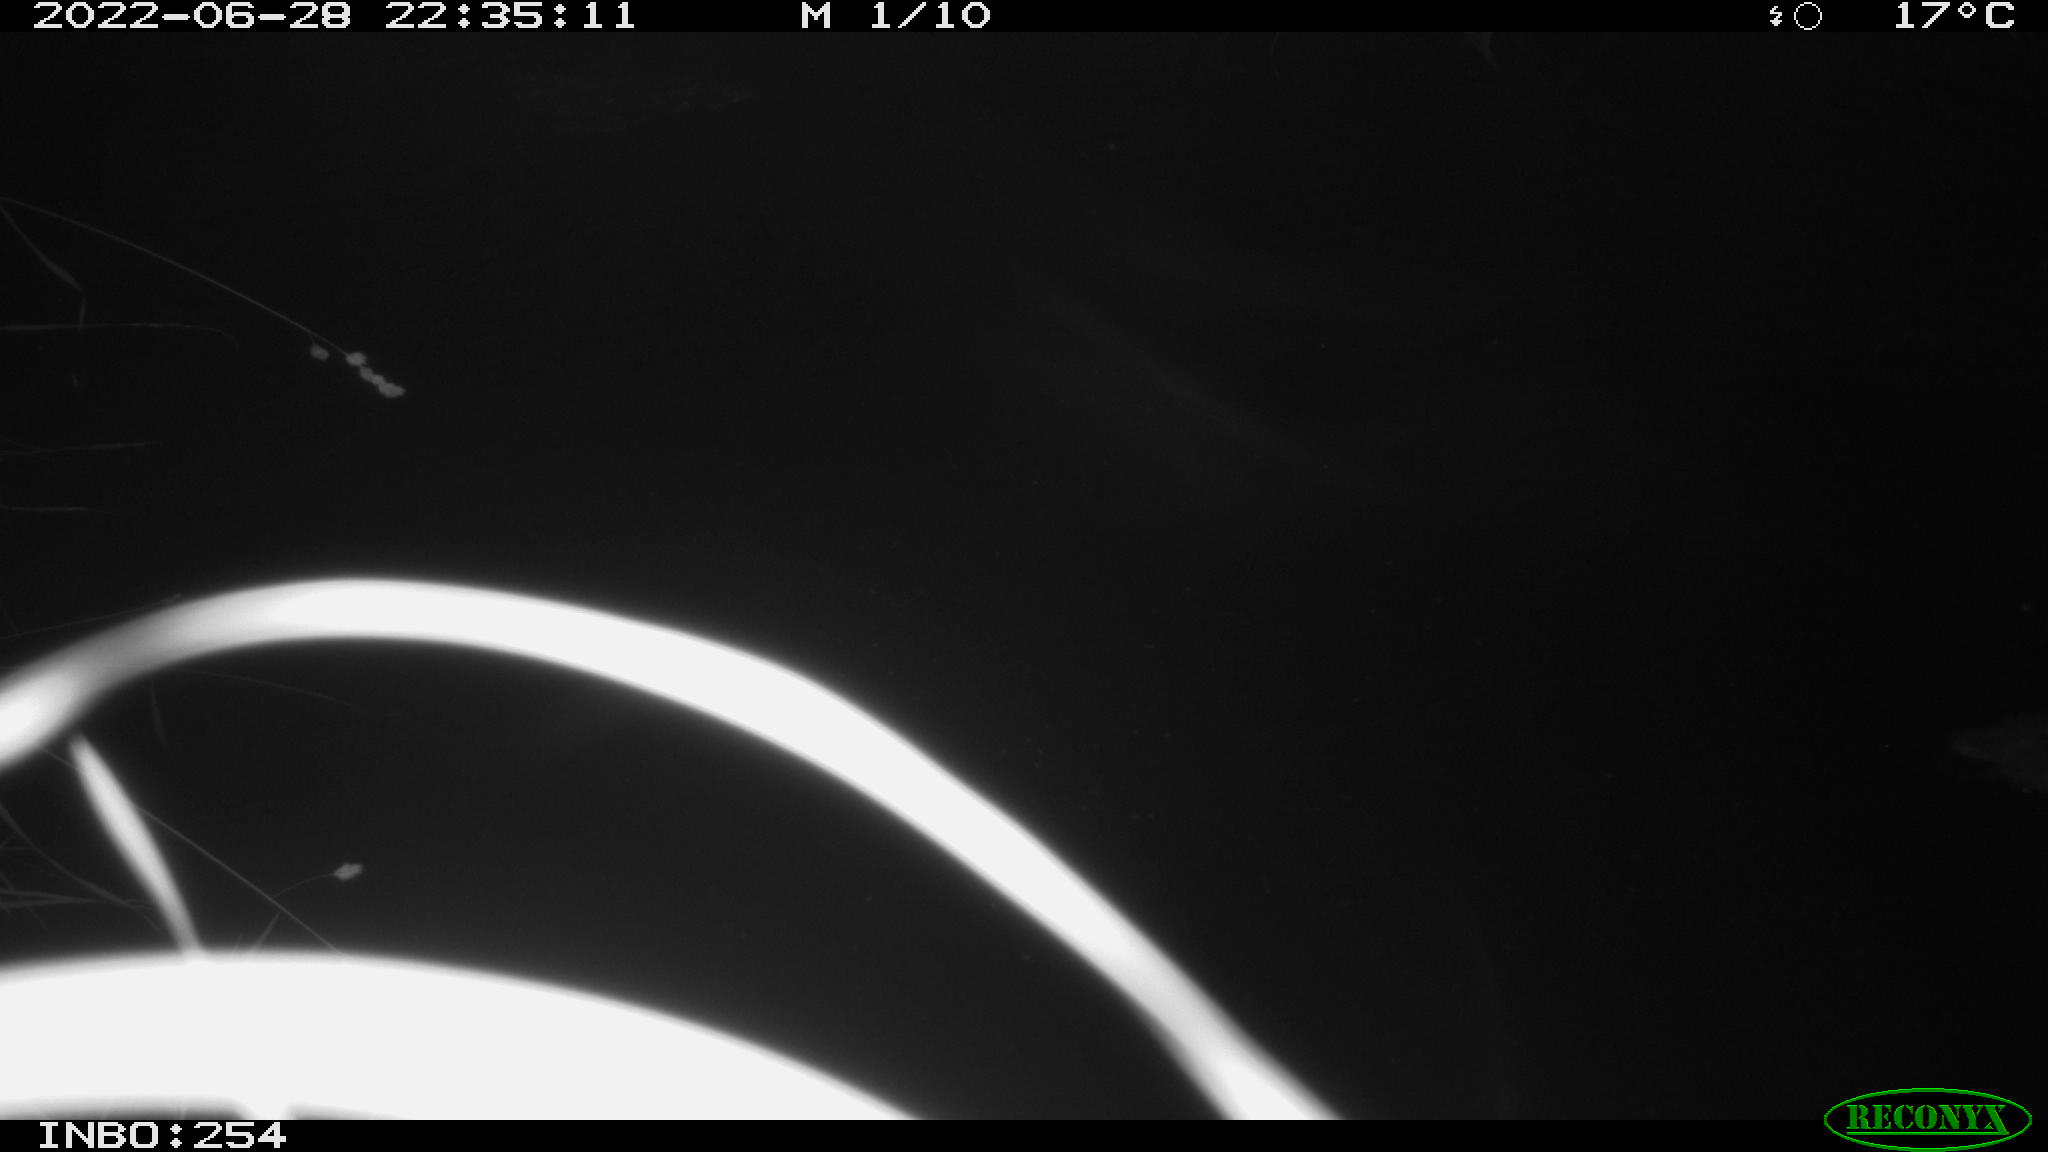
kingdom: Animalia
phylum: Chordata
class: Aves
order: Anseriformes
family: Anatidae
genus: Anas
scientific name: Anas platyrhynchos
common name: Mallard
